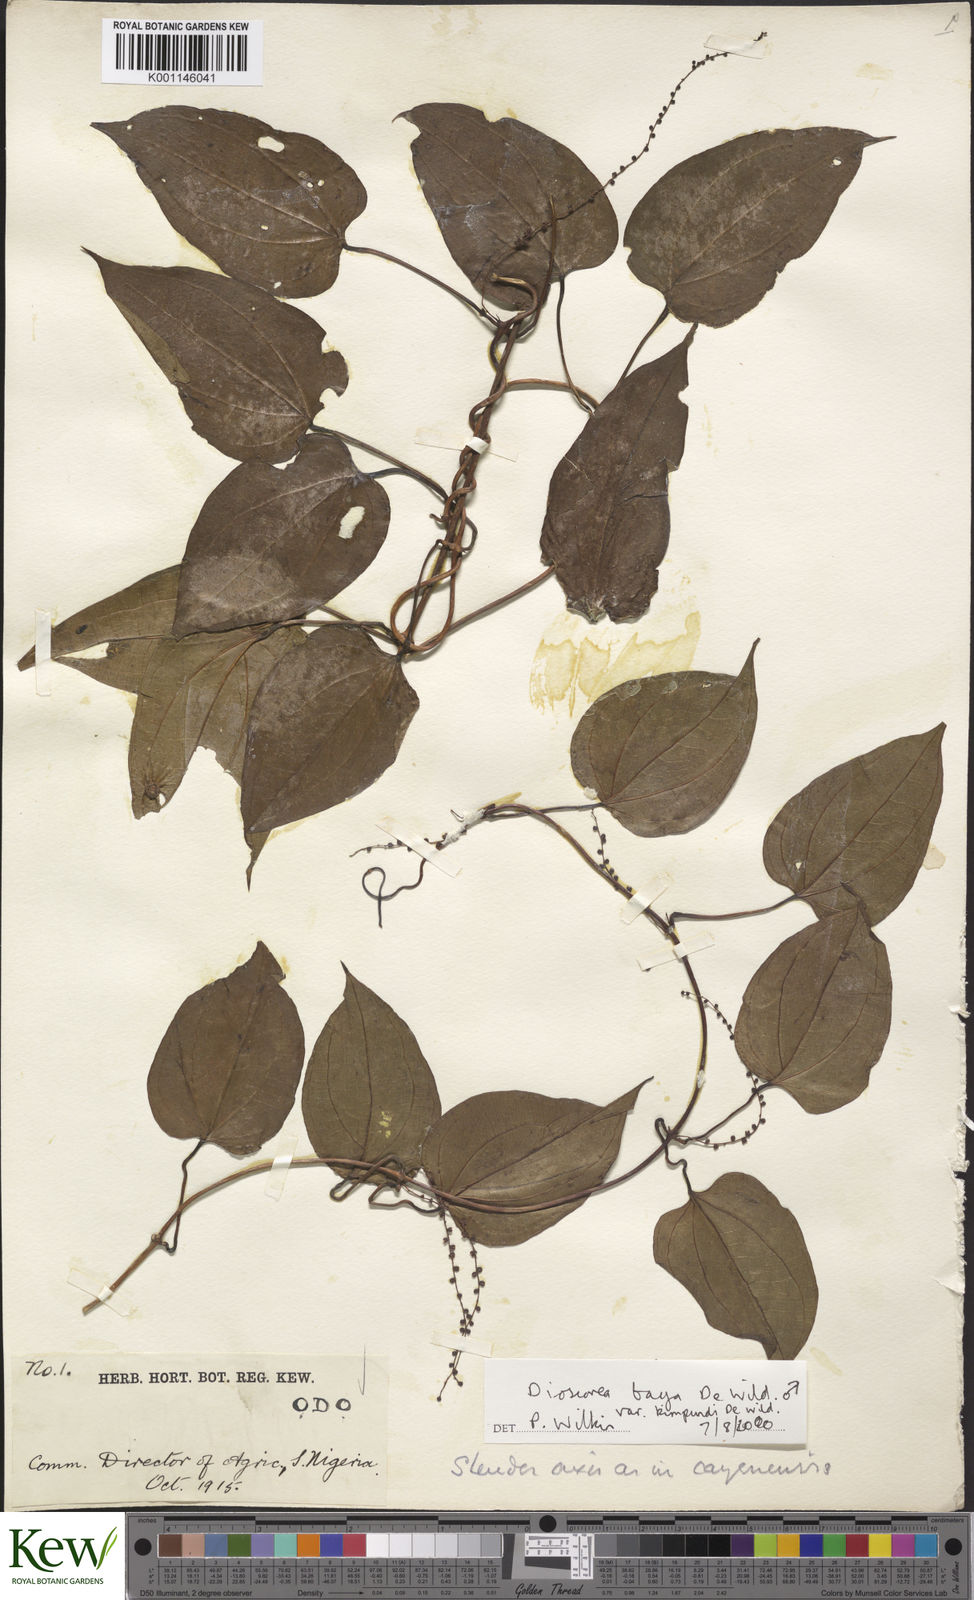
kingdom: Plantae
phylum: Tracheophyta
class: Liliopsida
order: Dioscoreales
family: Dioscoreaceae
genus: Dioscorea
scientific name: Dioscorea baya
